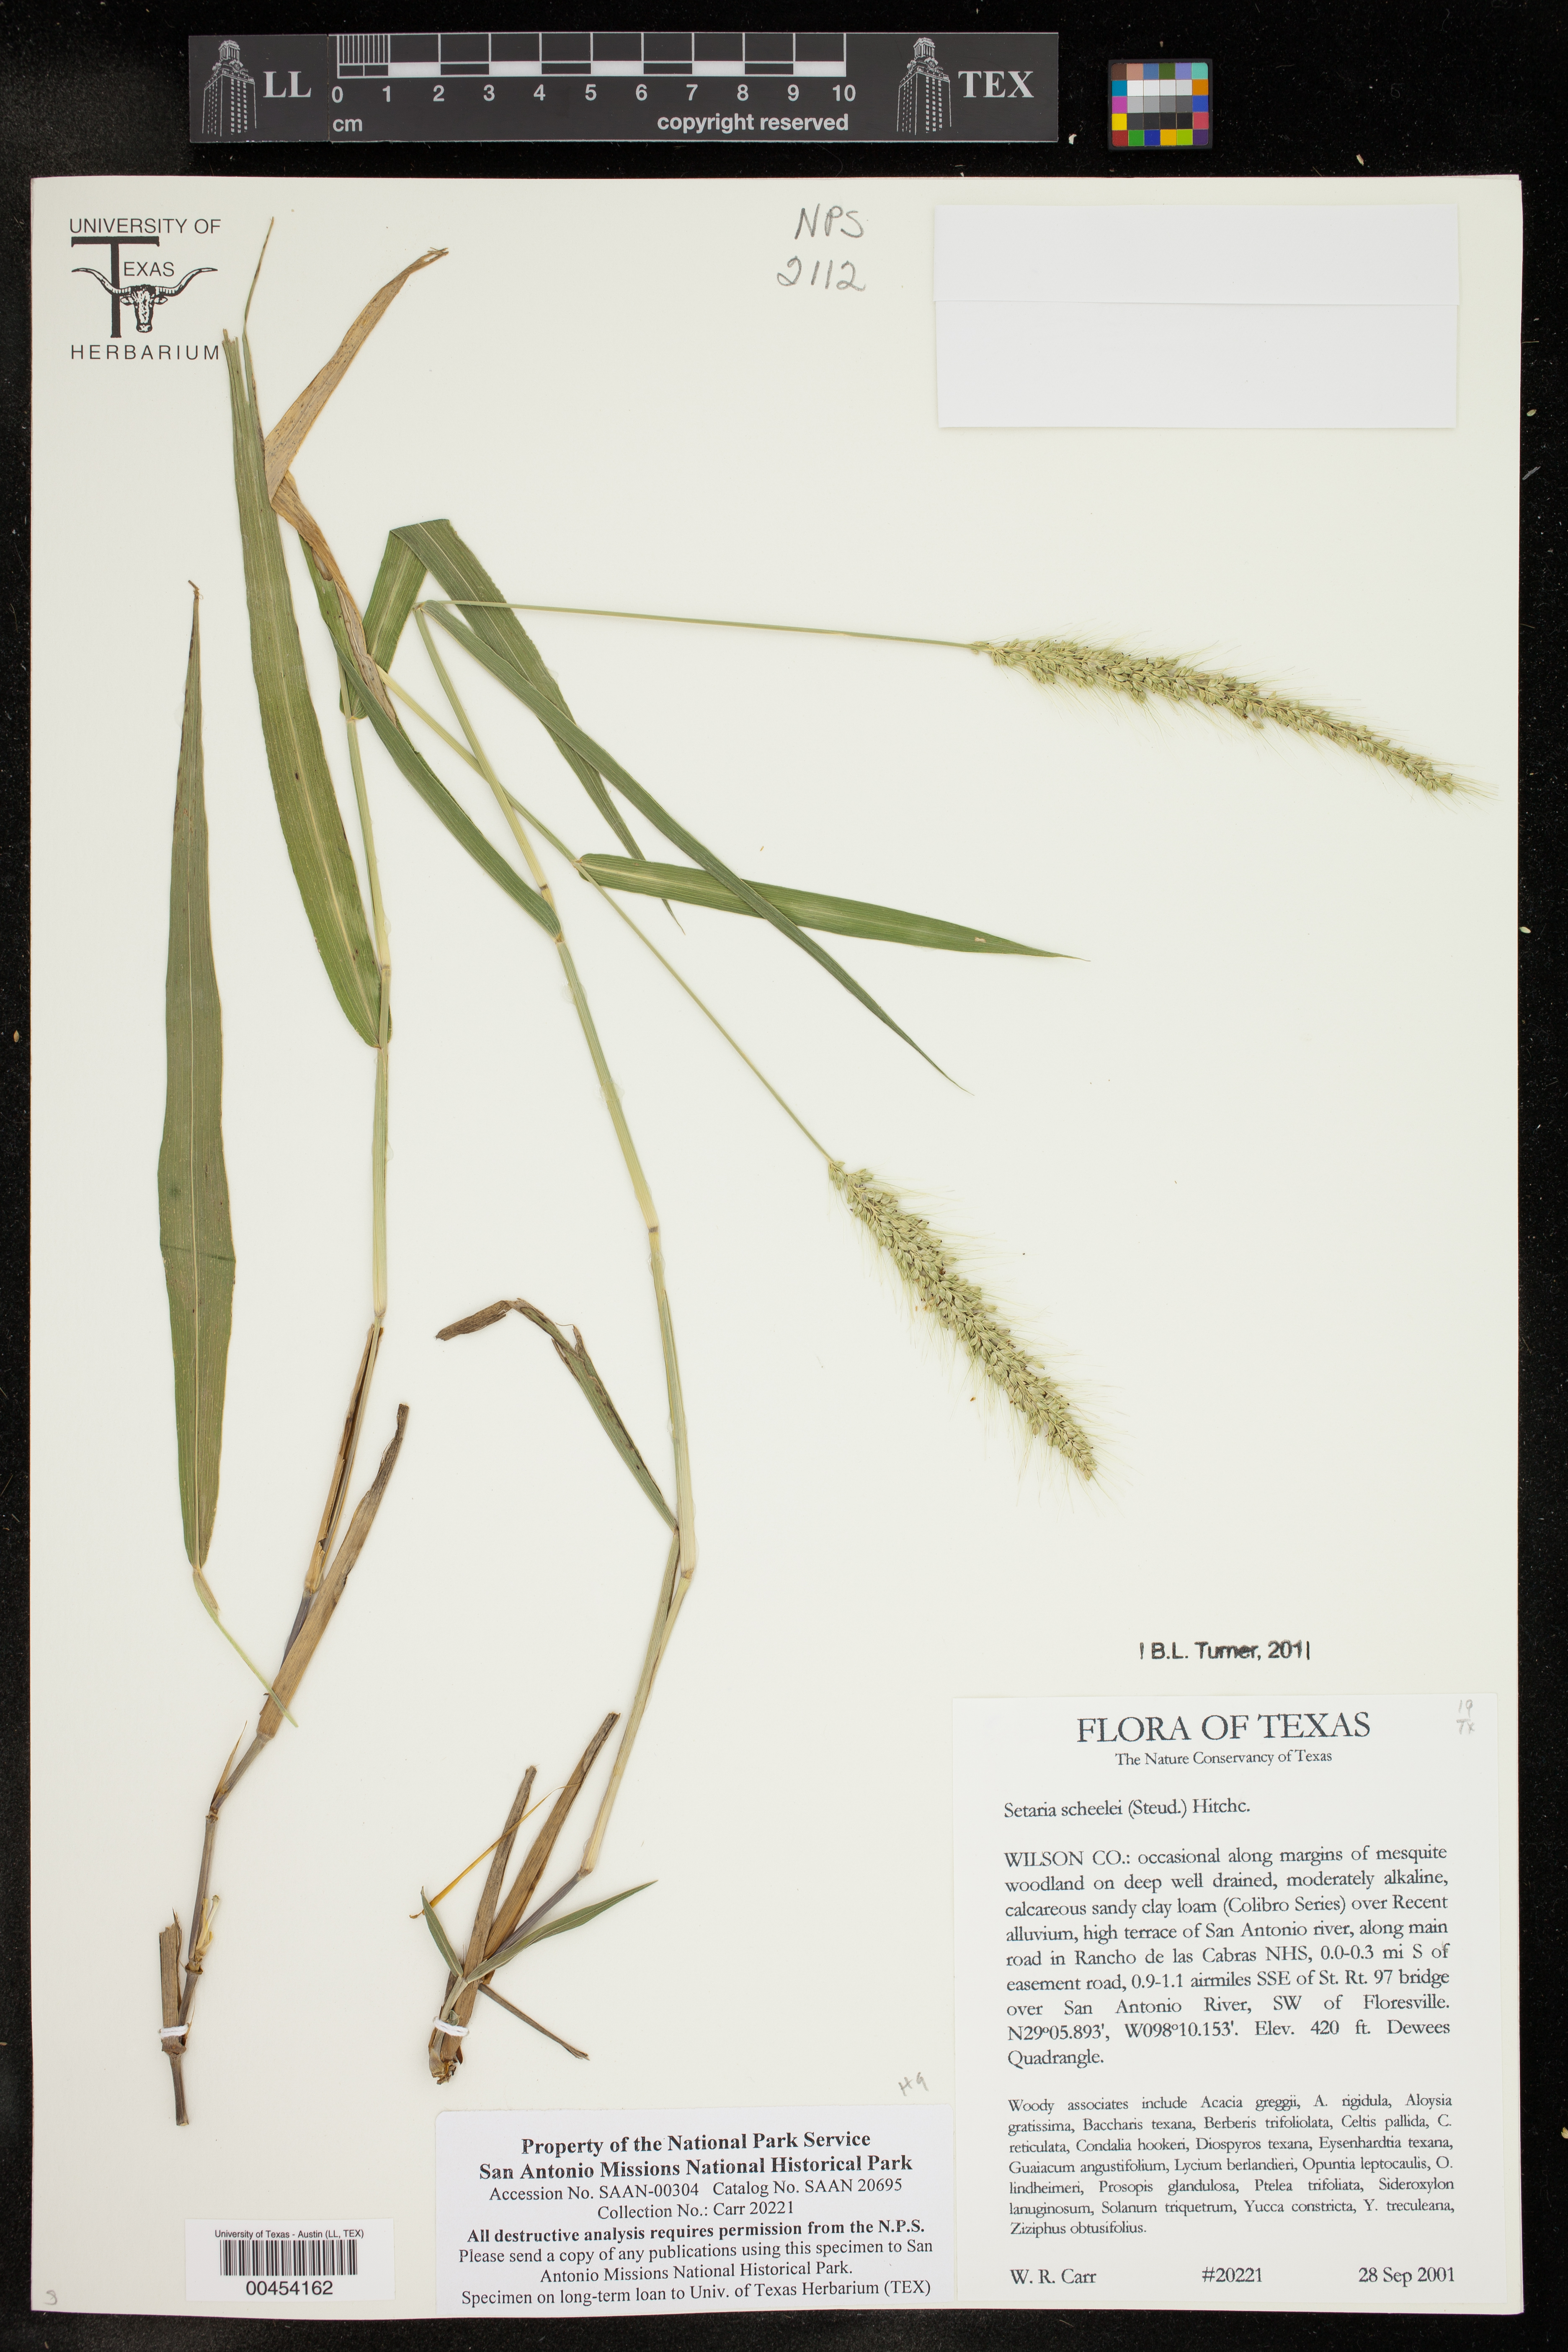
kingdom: Plantae
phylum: Tracheophyta
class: Liliopsida
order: Poales
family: Poaceae
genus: Setaria
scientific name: Setaria scheelei
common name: Southwestern bristle grass
